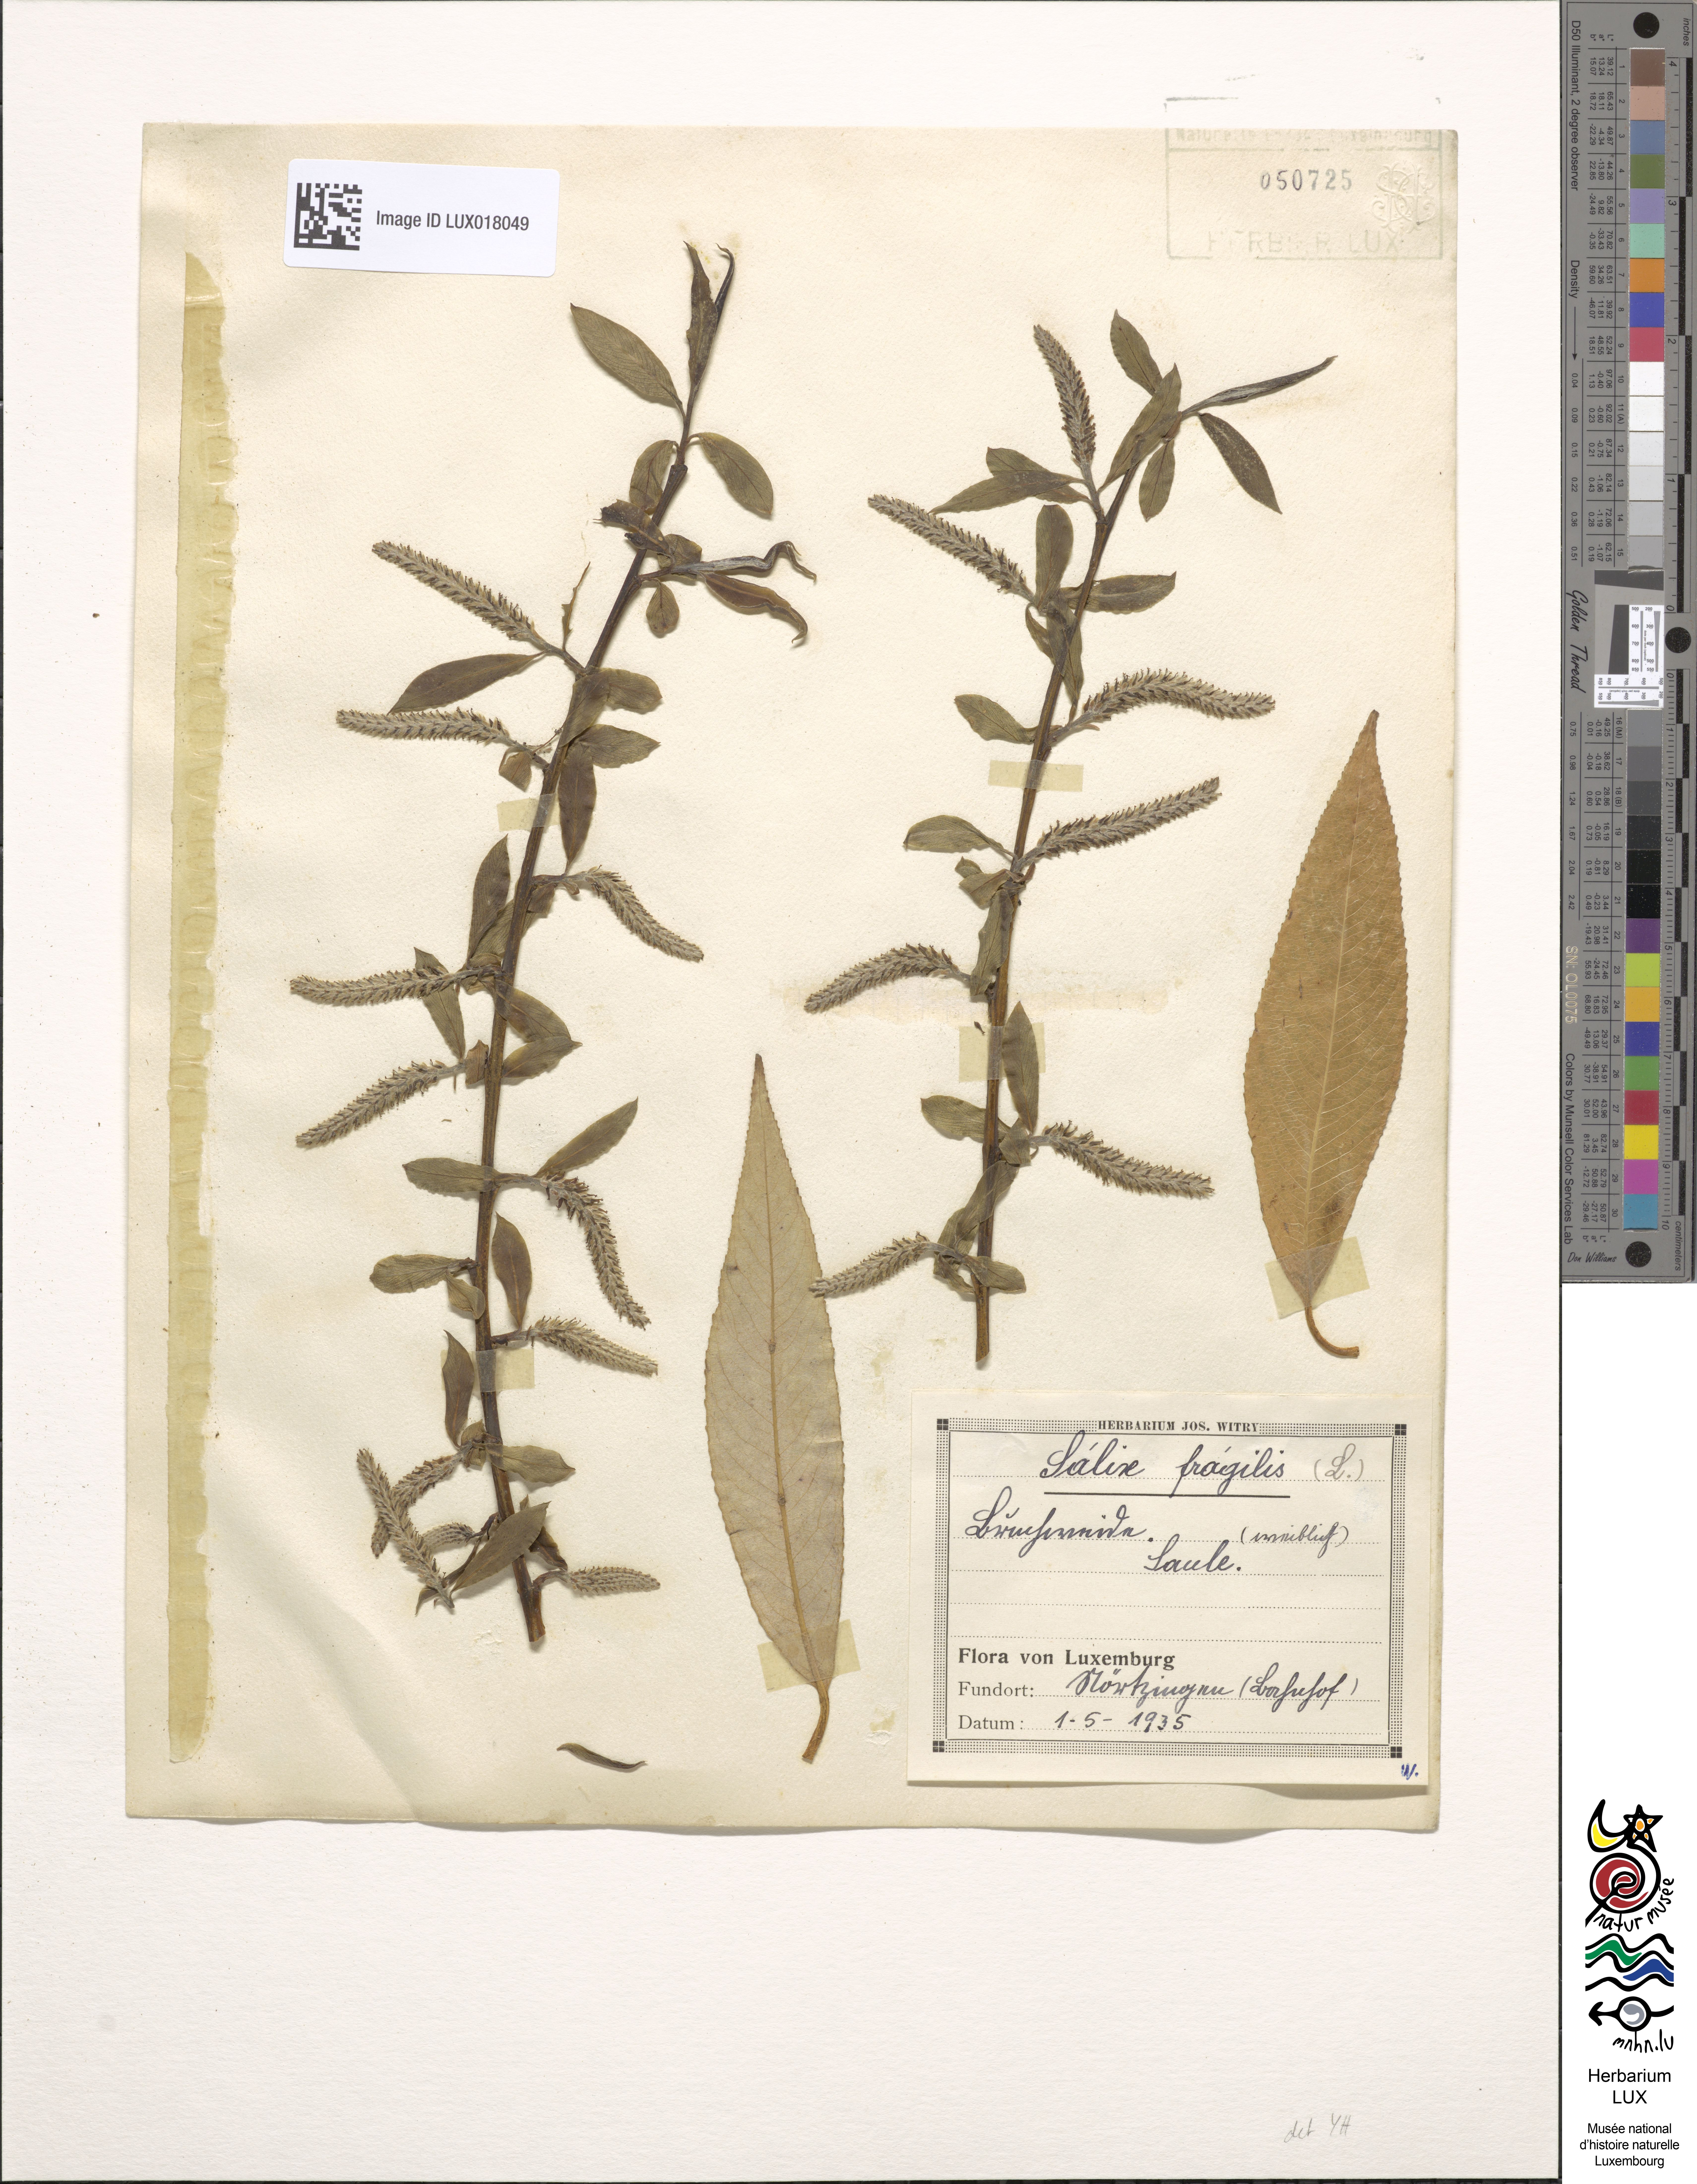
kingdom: Plantae
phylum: Tracheophyta
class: Magnoliopsida
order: Malpighiales
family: Salicaceae
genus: Salix
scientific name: Salix fragilis
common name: Crack willow
